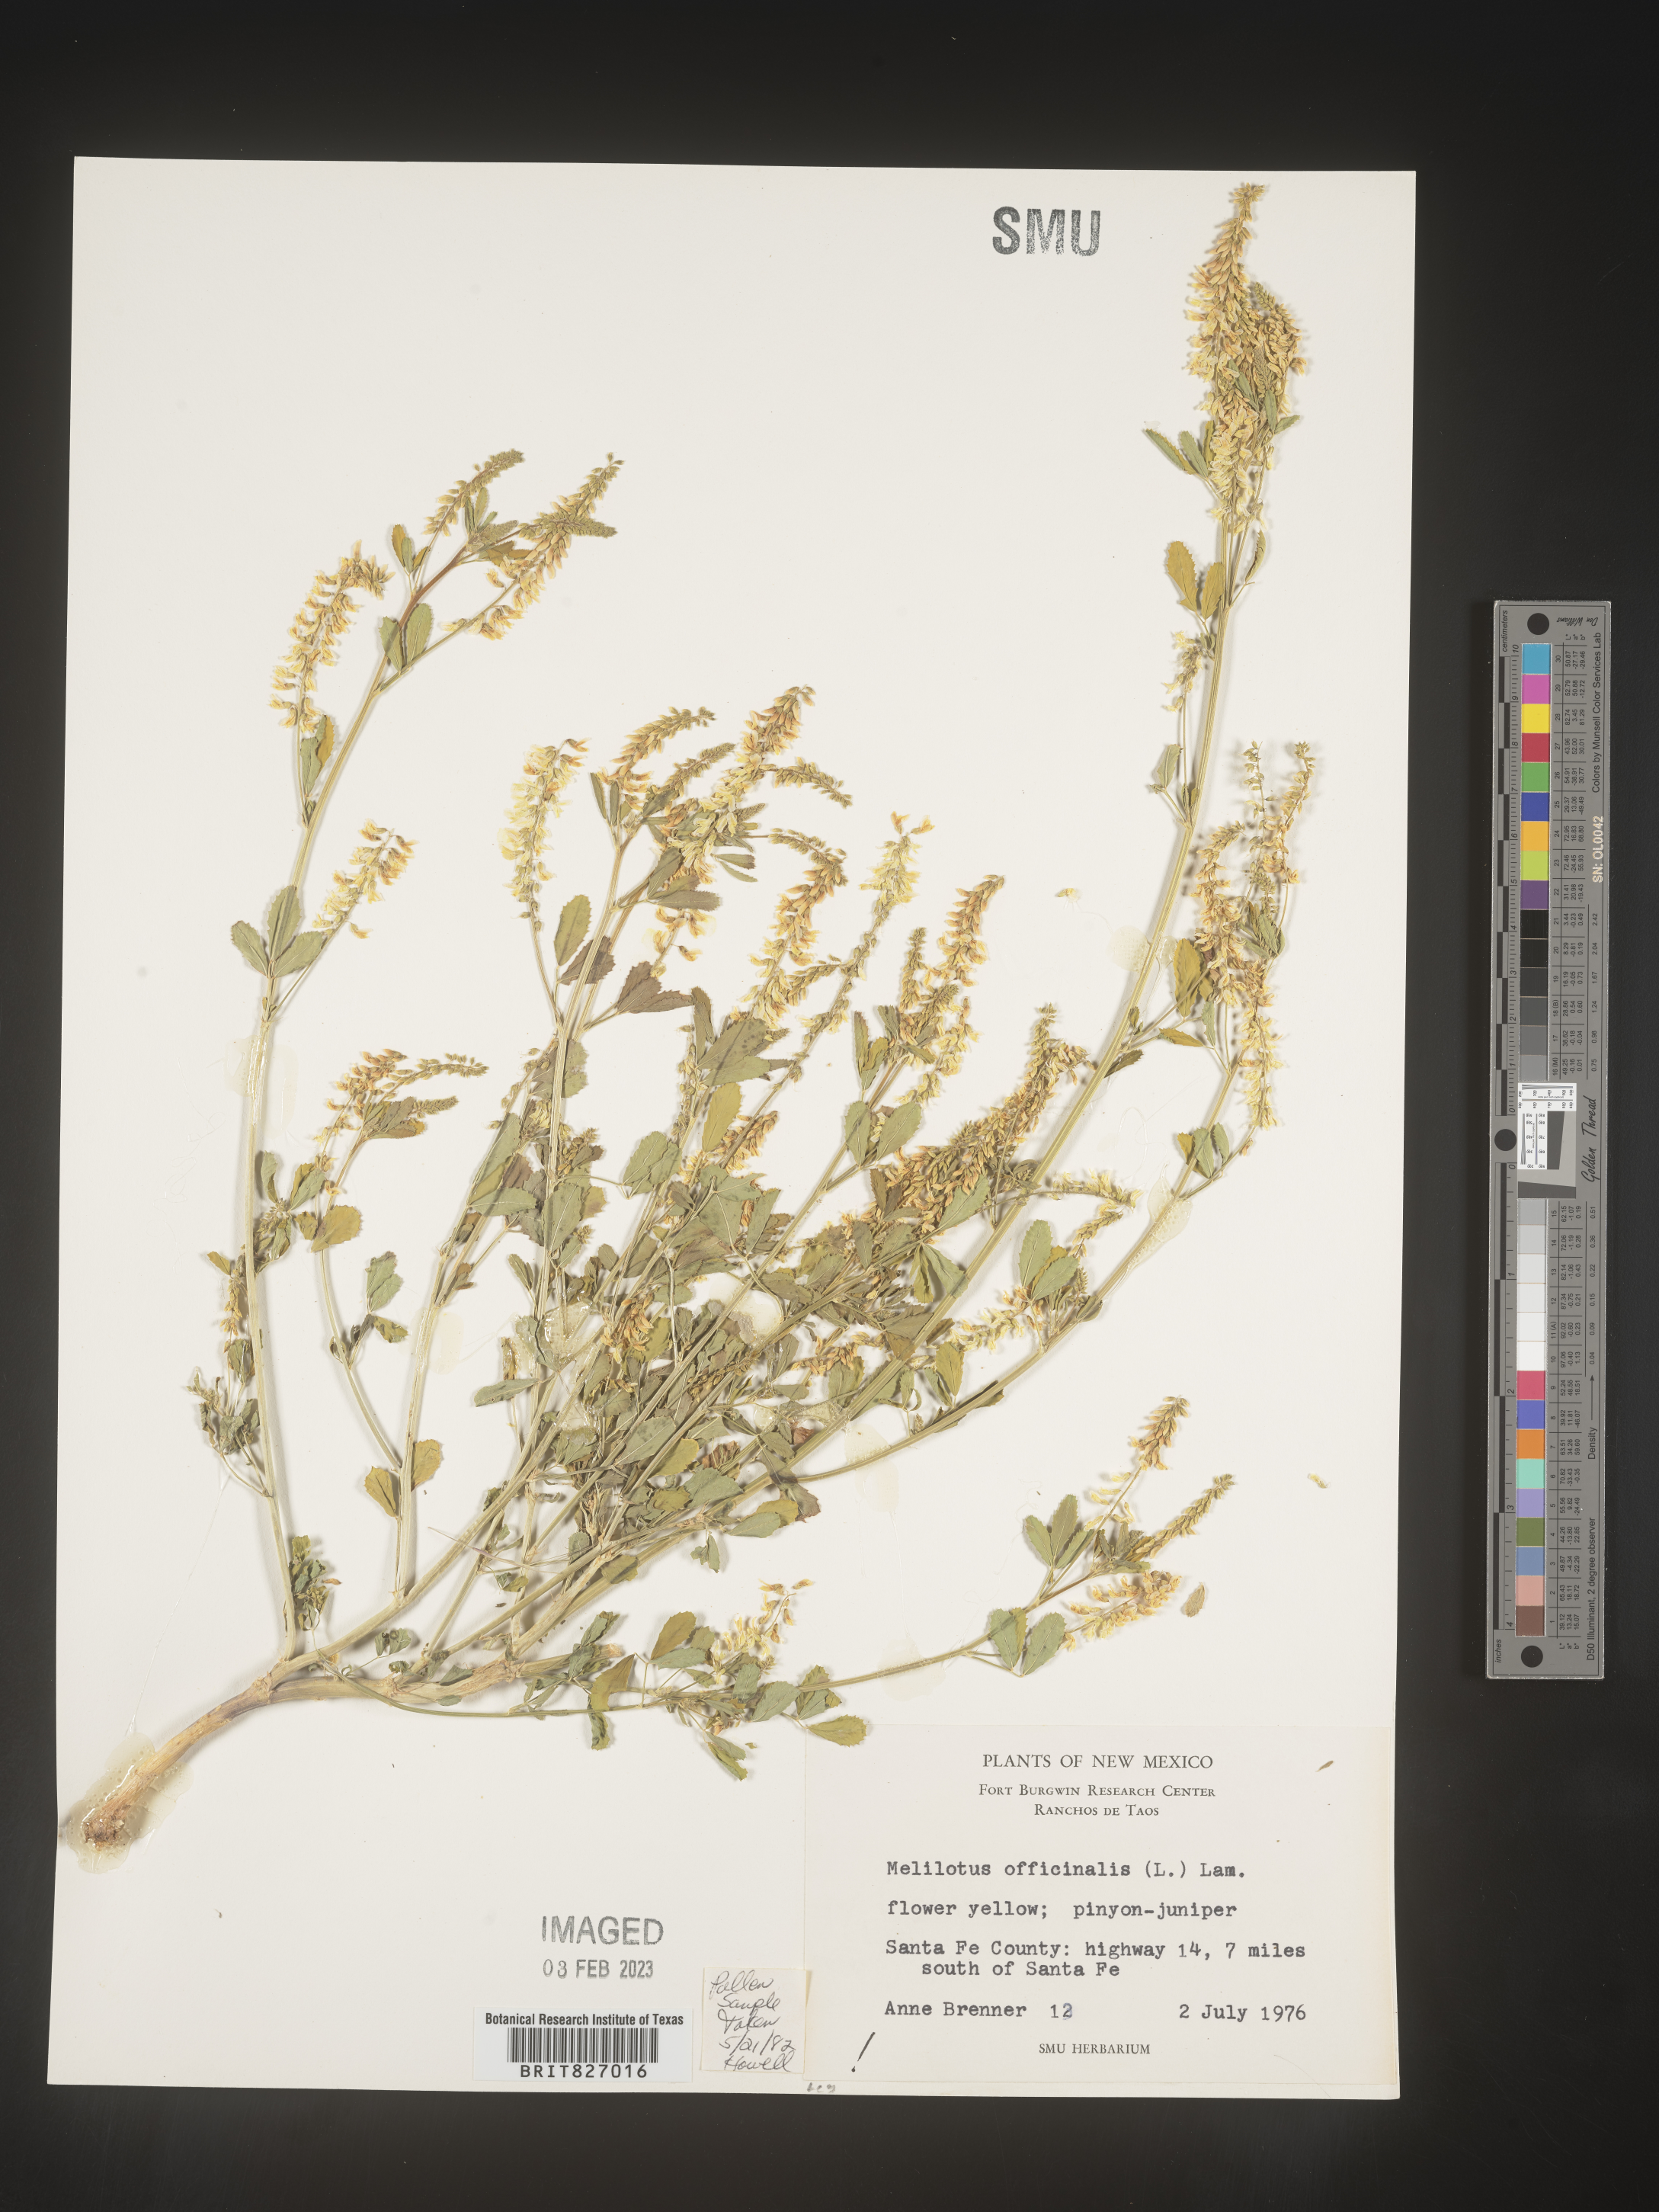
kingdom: Plantae
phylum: Tracheophyta
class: Magnoliopsida
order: Fabales
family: Fabaceae
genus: Melilotus
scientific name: Melilotus officinalis
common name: Sweetclover
